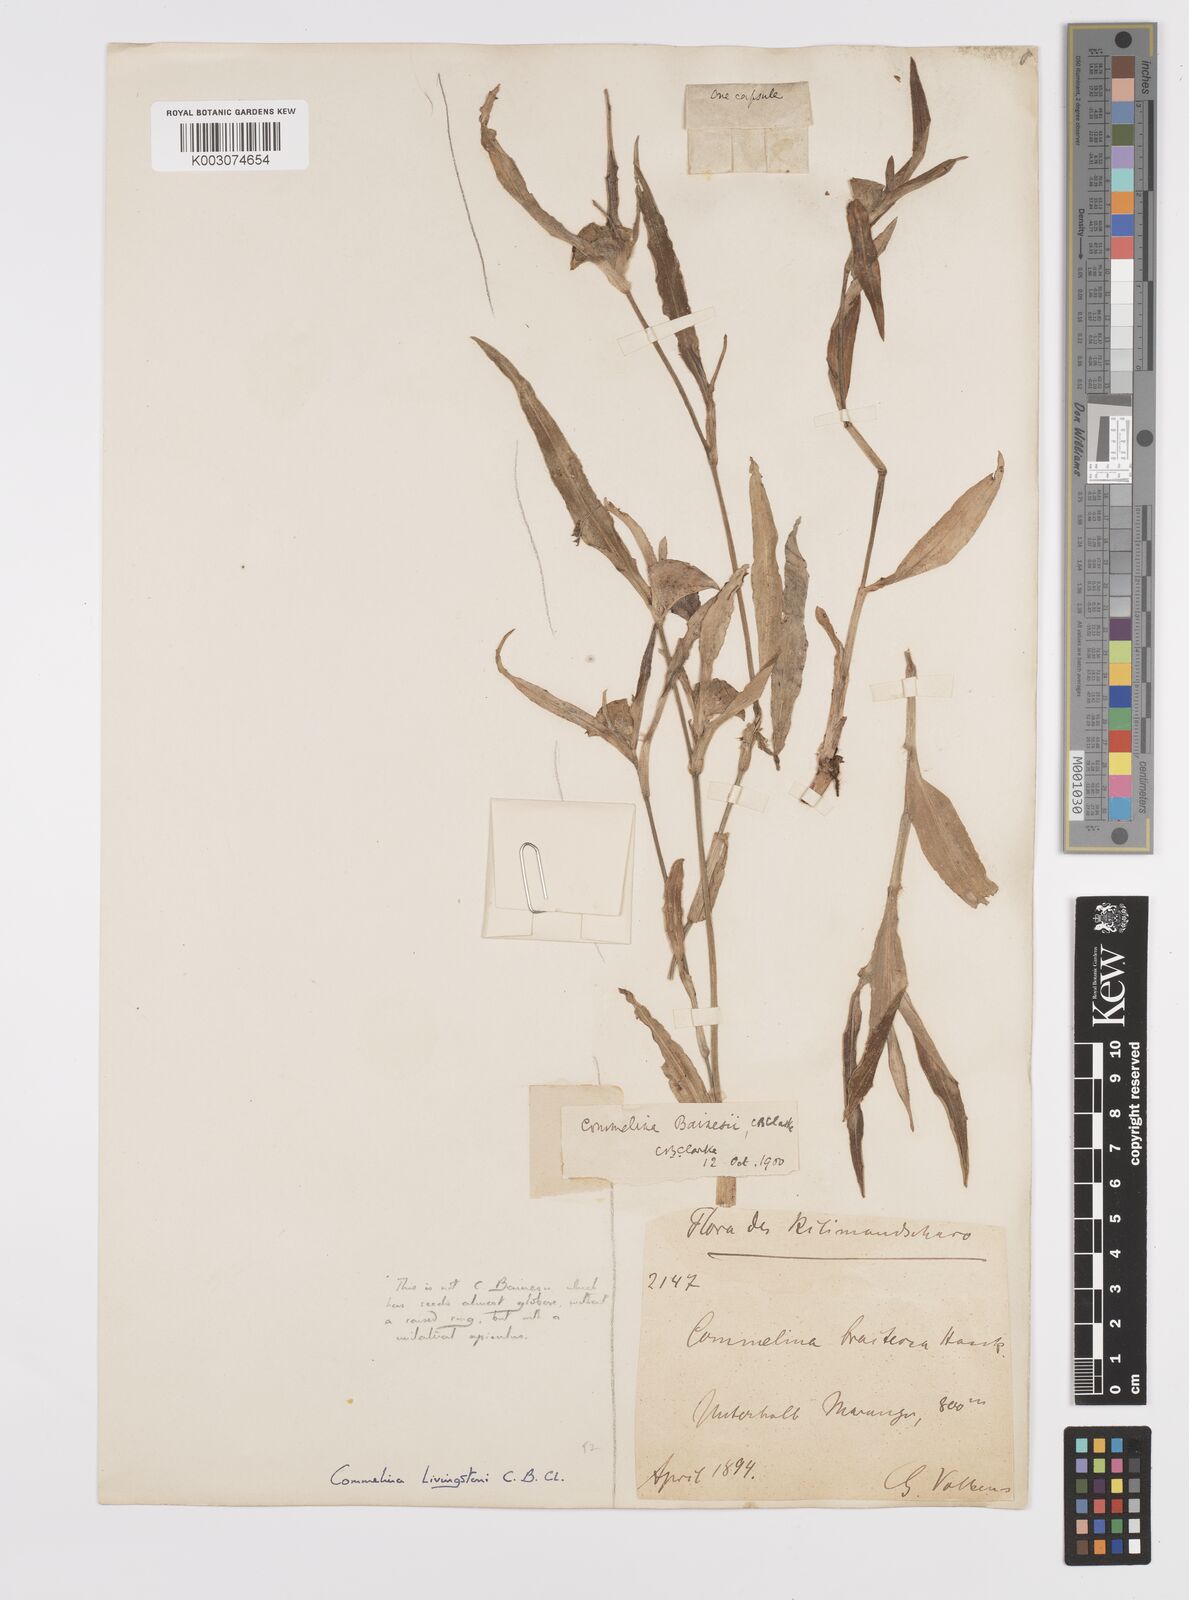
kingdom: Plantae
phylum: Tracheophyta
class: Liliopsida
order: Commelinales
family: Commelinaceae
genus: Commelina
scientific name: Commelina erecta
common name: Blousel blommetjie
